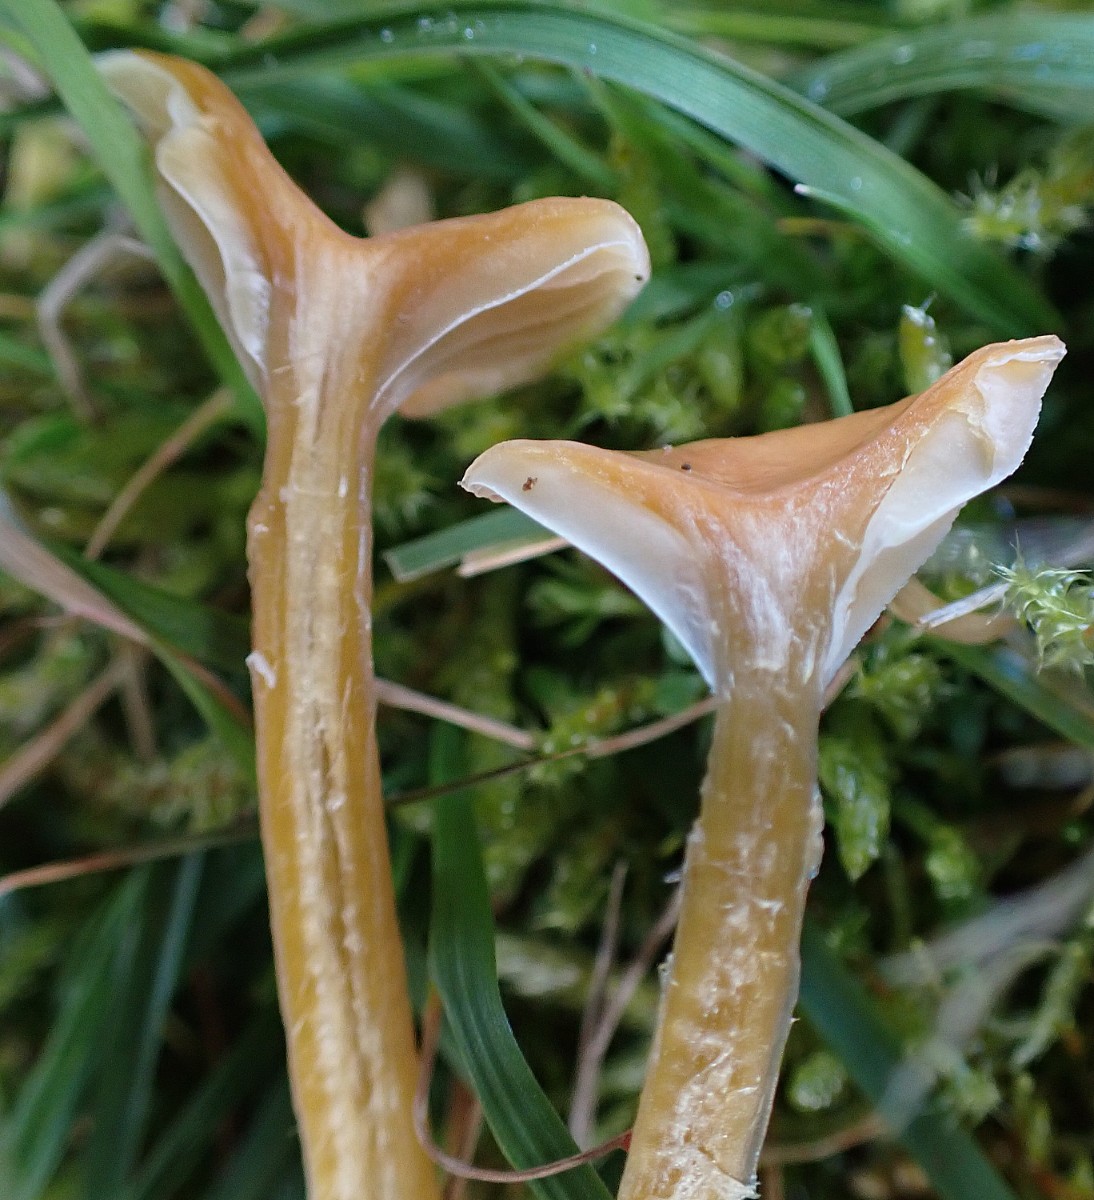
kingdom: Fungi
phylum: Basidiomycota
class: Agaricomycetes
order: Agaricales
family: Hygrophoraceae
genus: Gliophorus
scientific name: Gliophorus laetus
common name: brusk-vokshat
